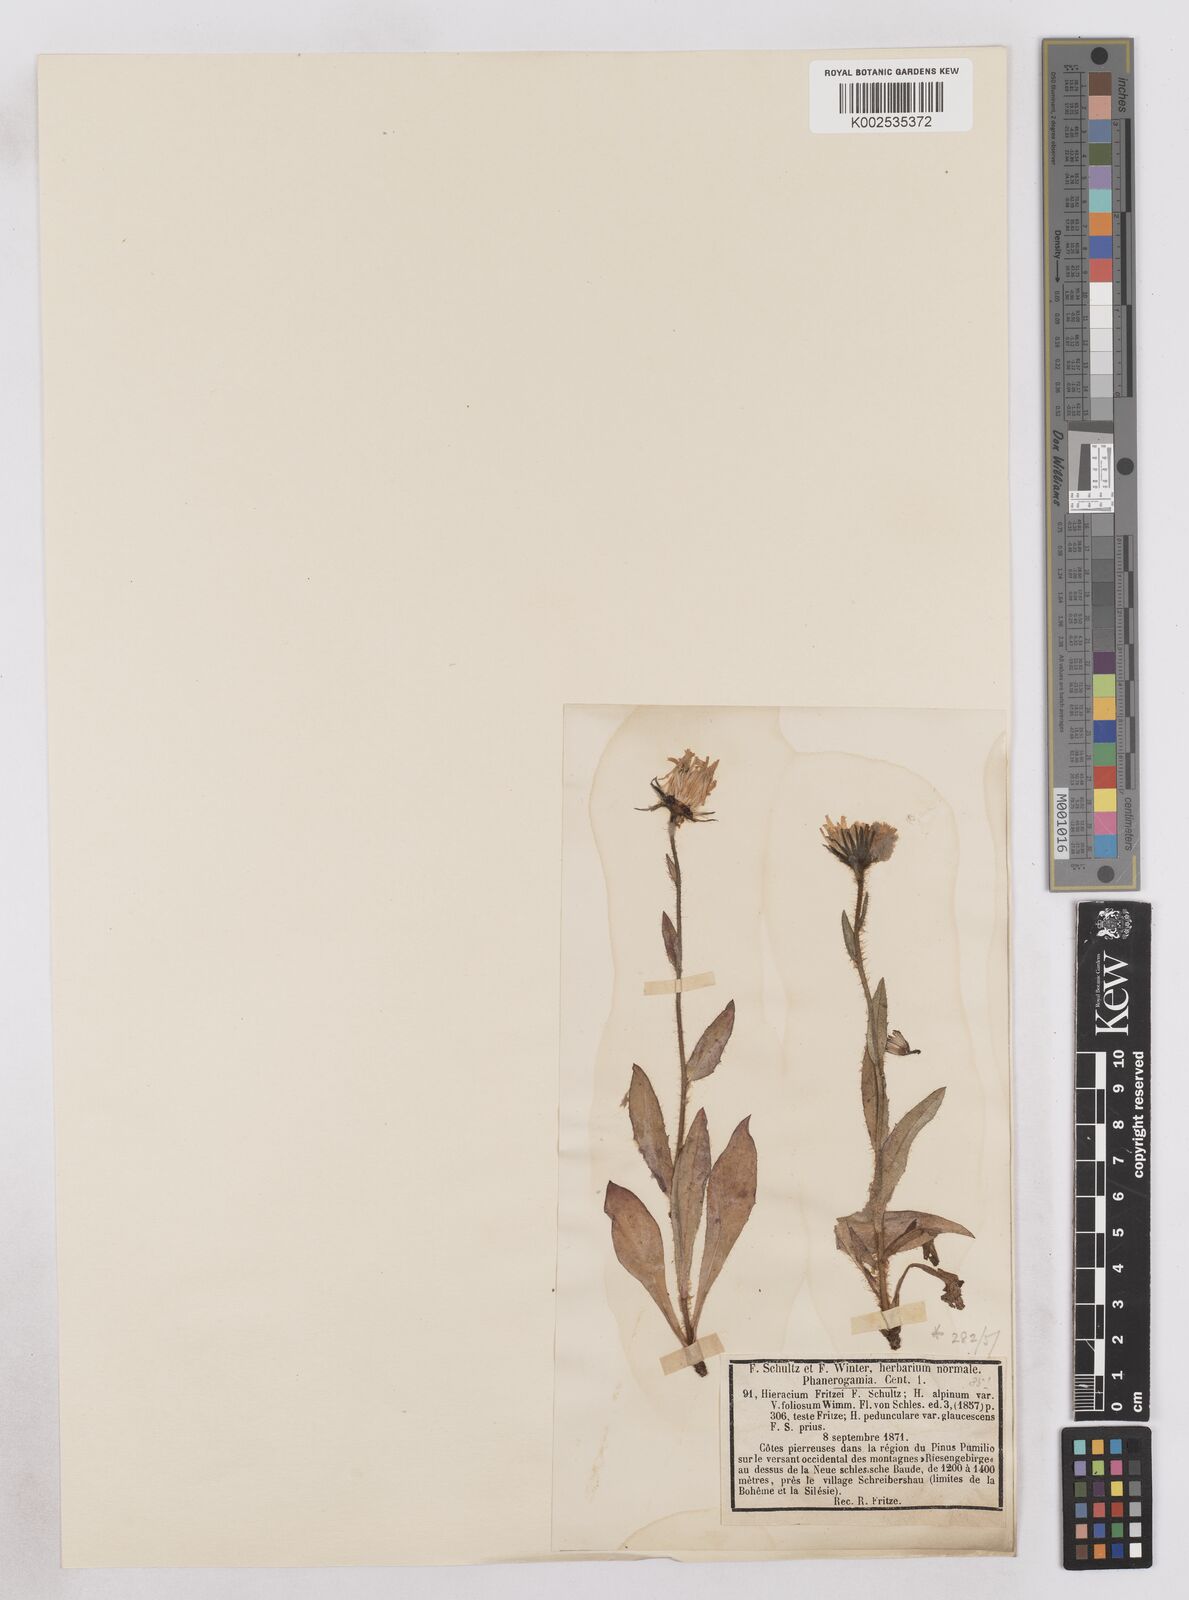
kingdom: Plantae
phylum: Tracheophyta
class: Magnoliopsida
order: Asterales
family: Asteraceae
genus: Hieracium
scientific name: Hieracium fritzei
